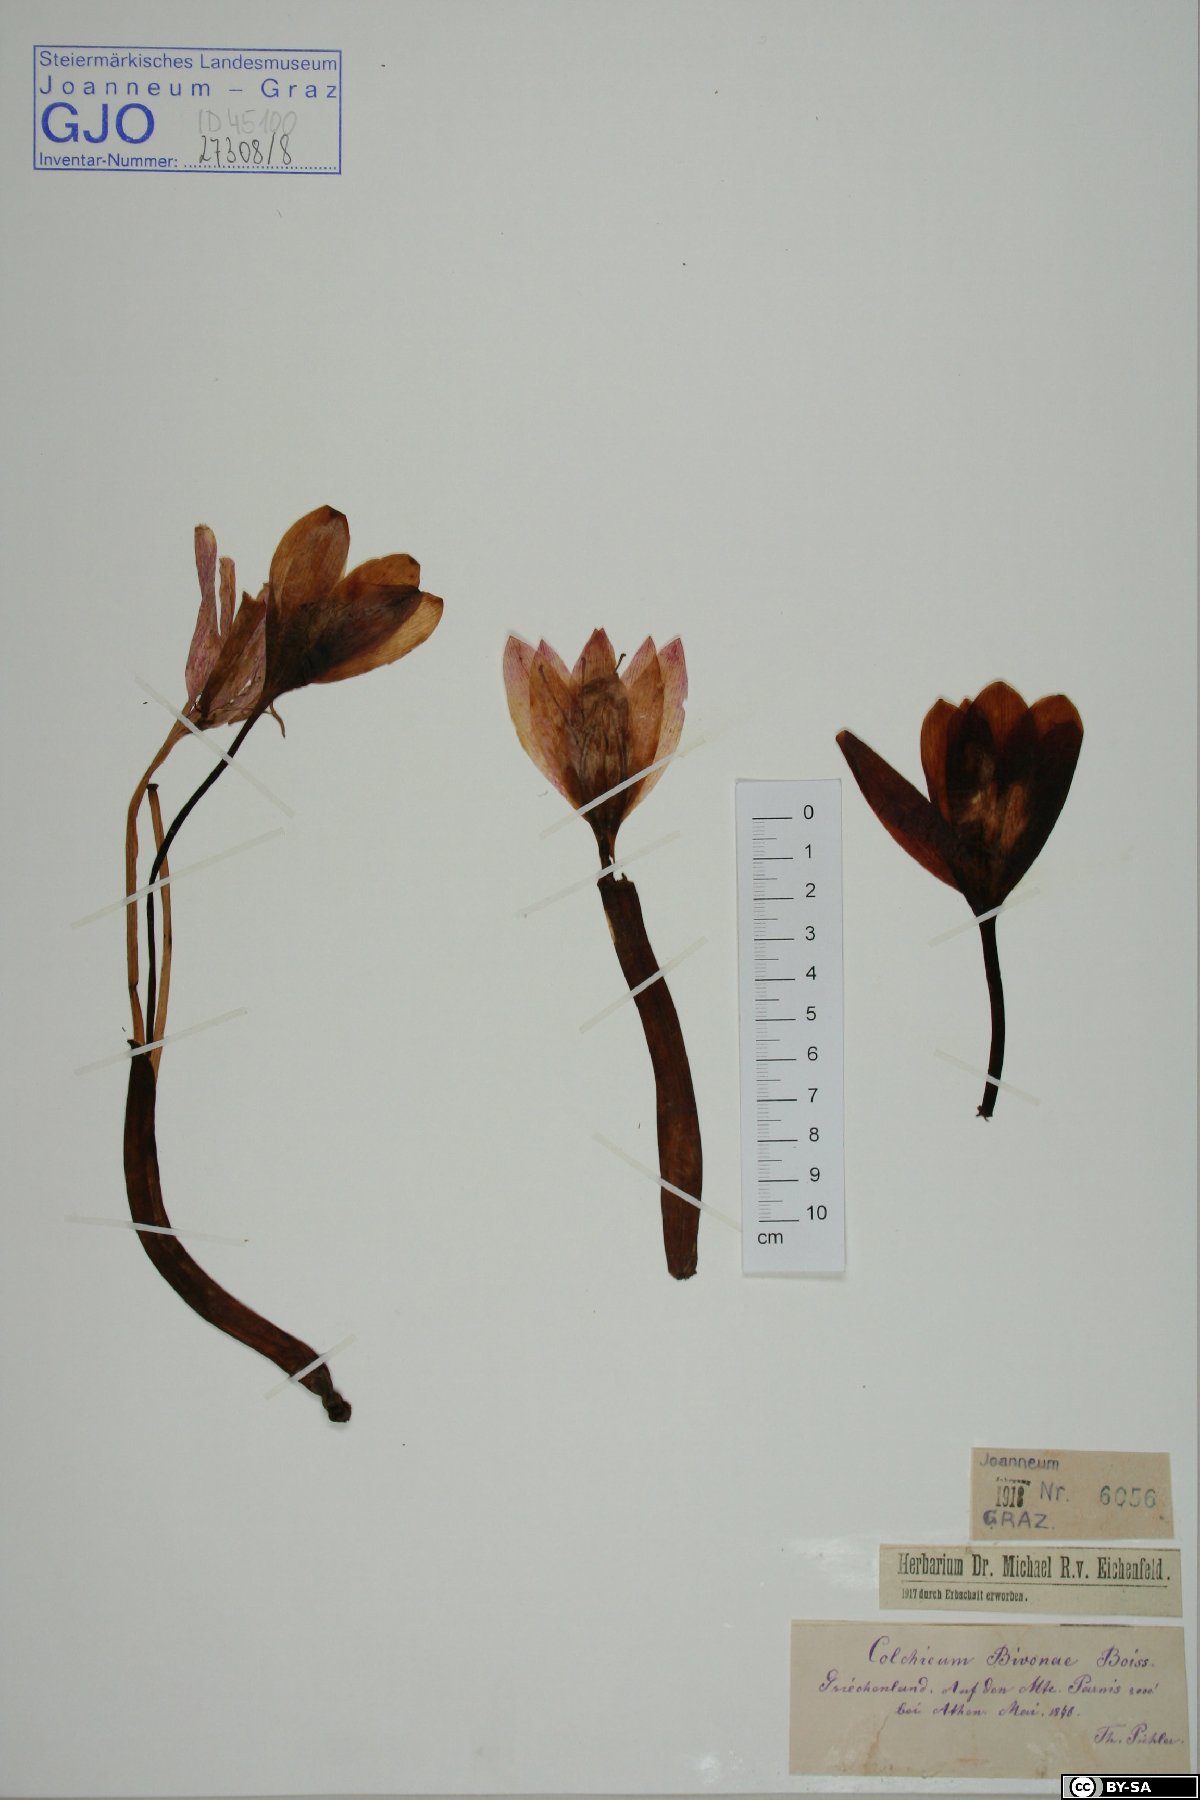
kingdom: Plantae
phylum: Tracheophyta
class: Liliopsida
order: Liliales
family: Colchicaceae
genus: Colchicum
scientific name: Colchicum bivonae
